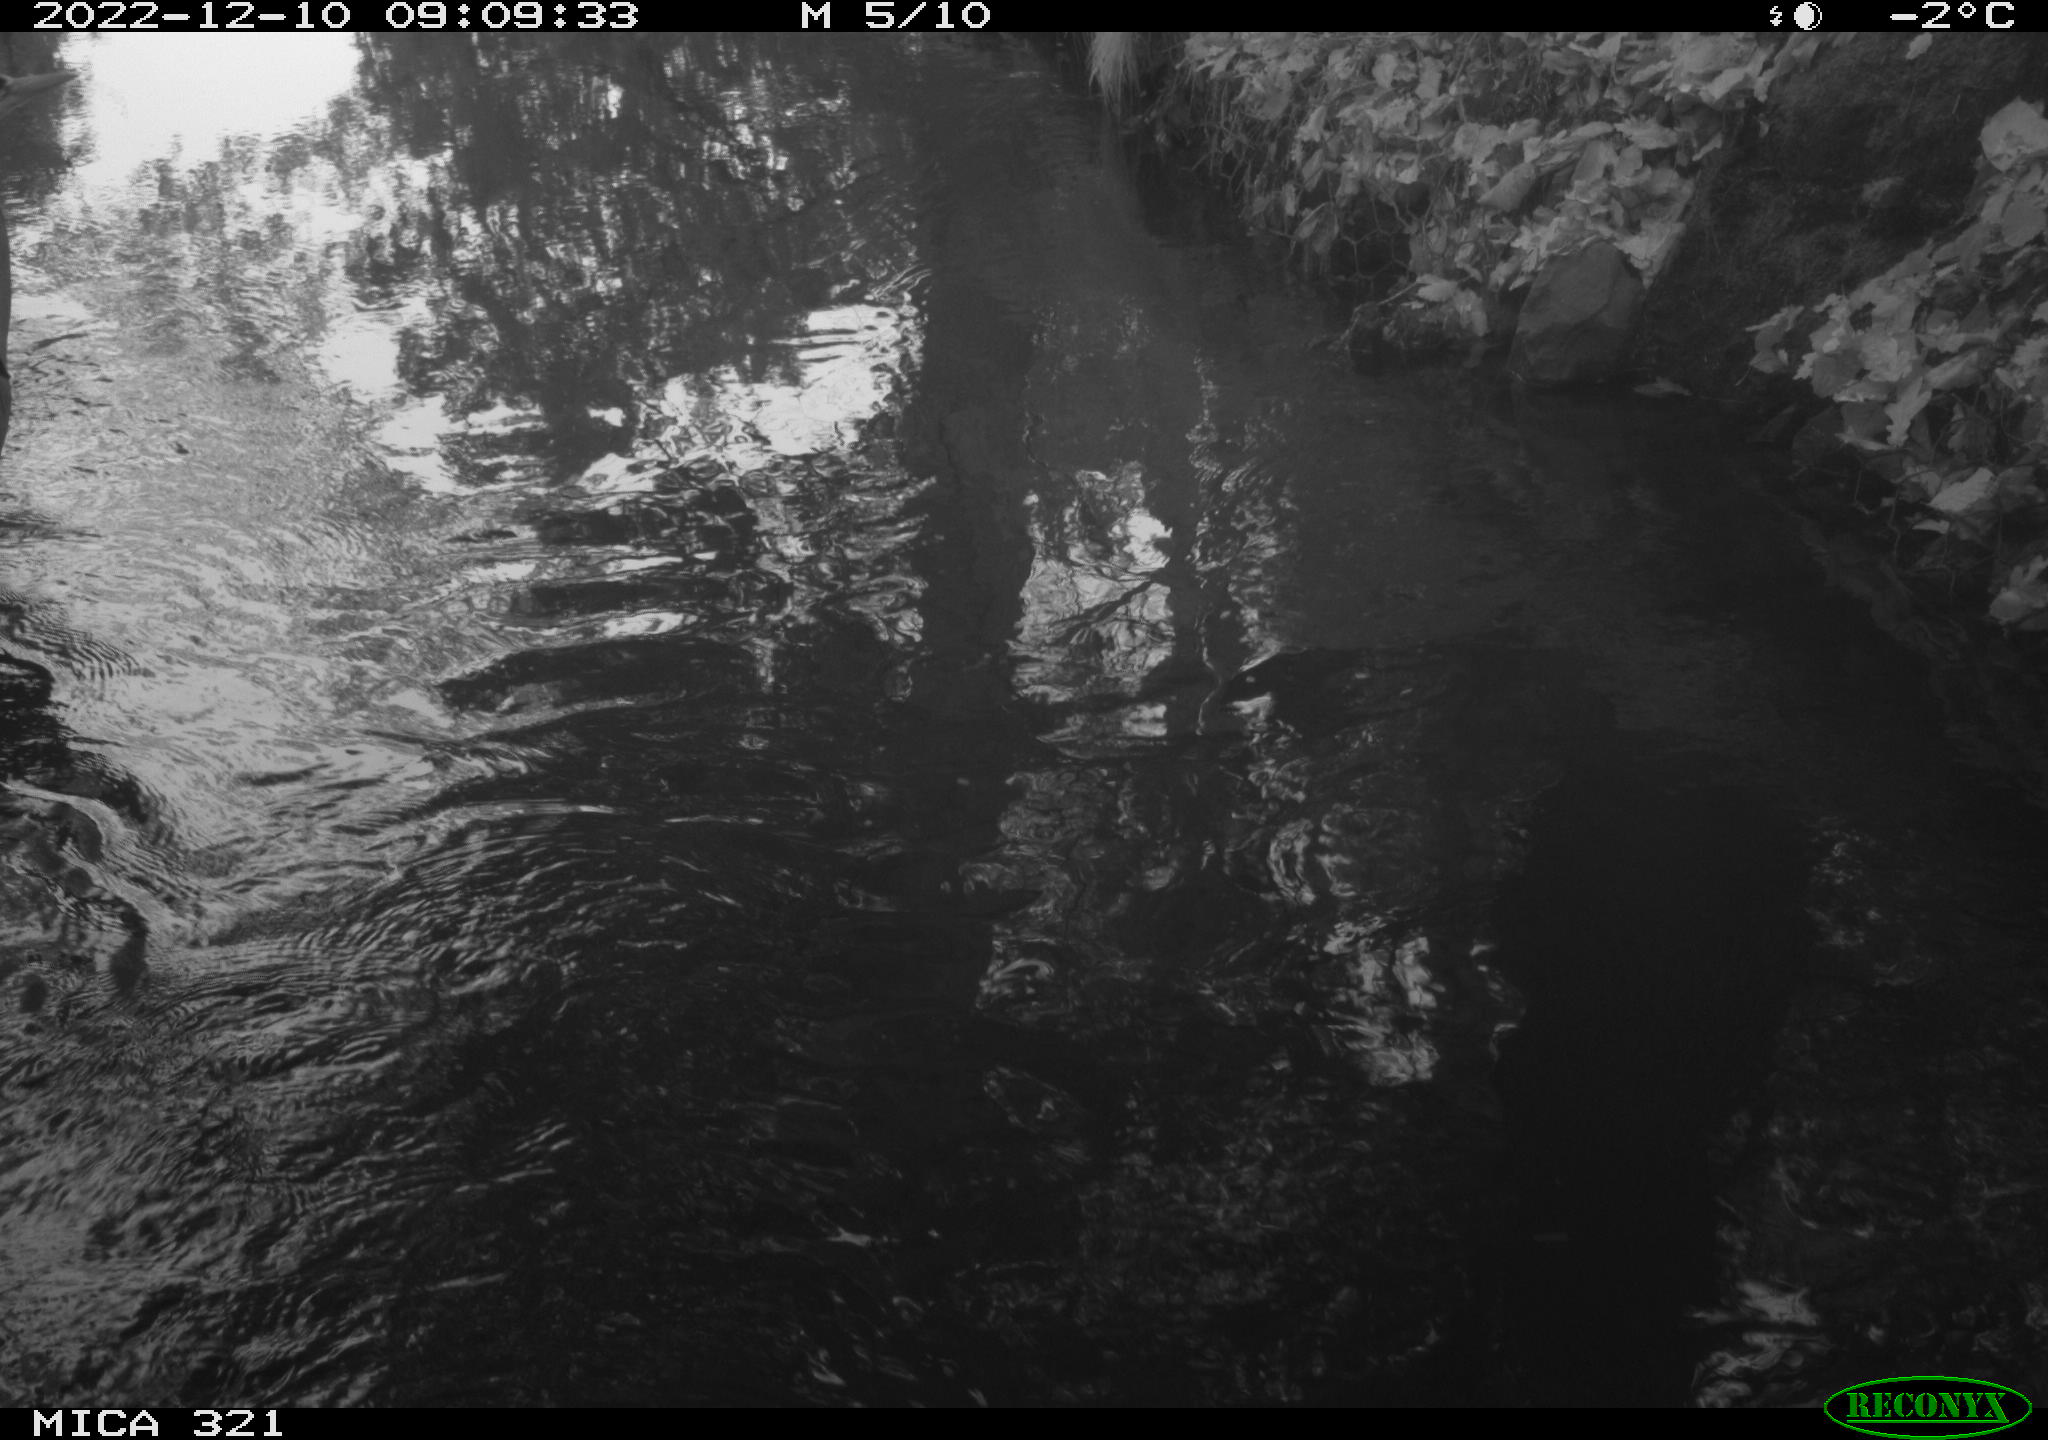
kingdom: Animalia
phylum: Chordata
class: Aves
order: Pelecaniformes
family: Ardeidae
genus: Ardea
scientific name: Ardea cinerea
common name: Grey heron
